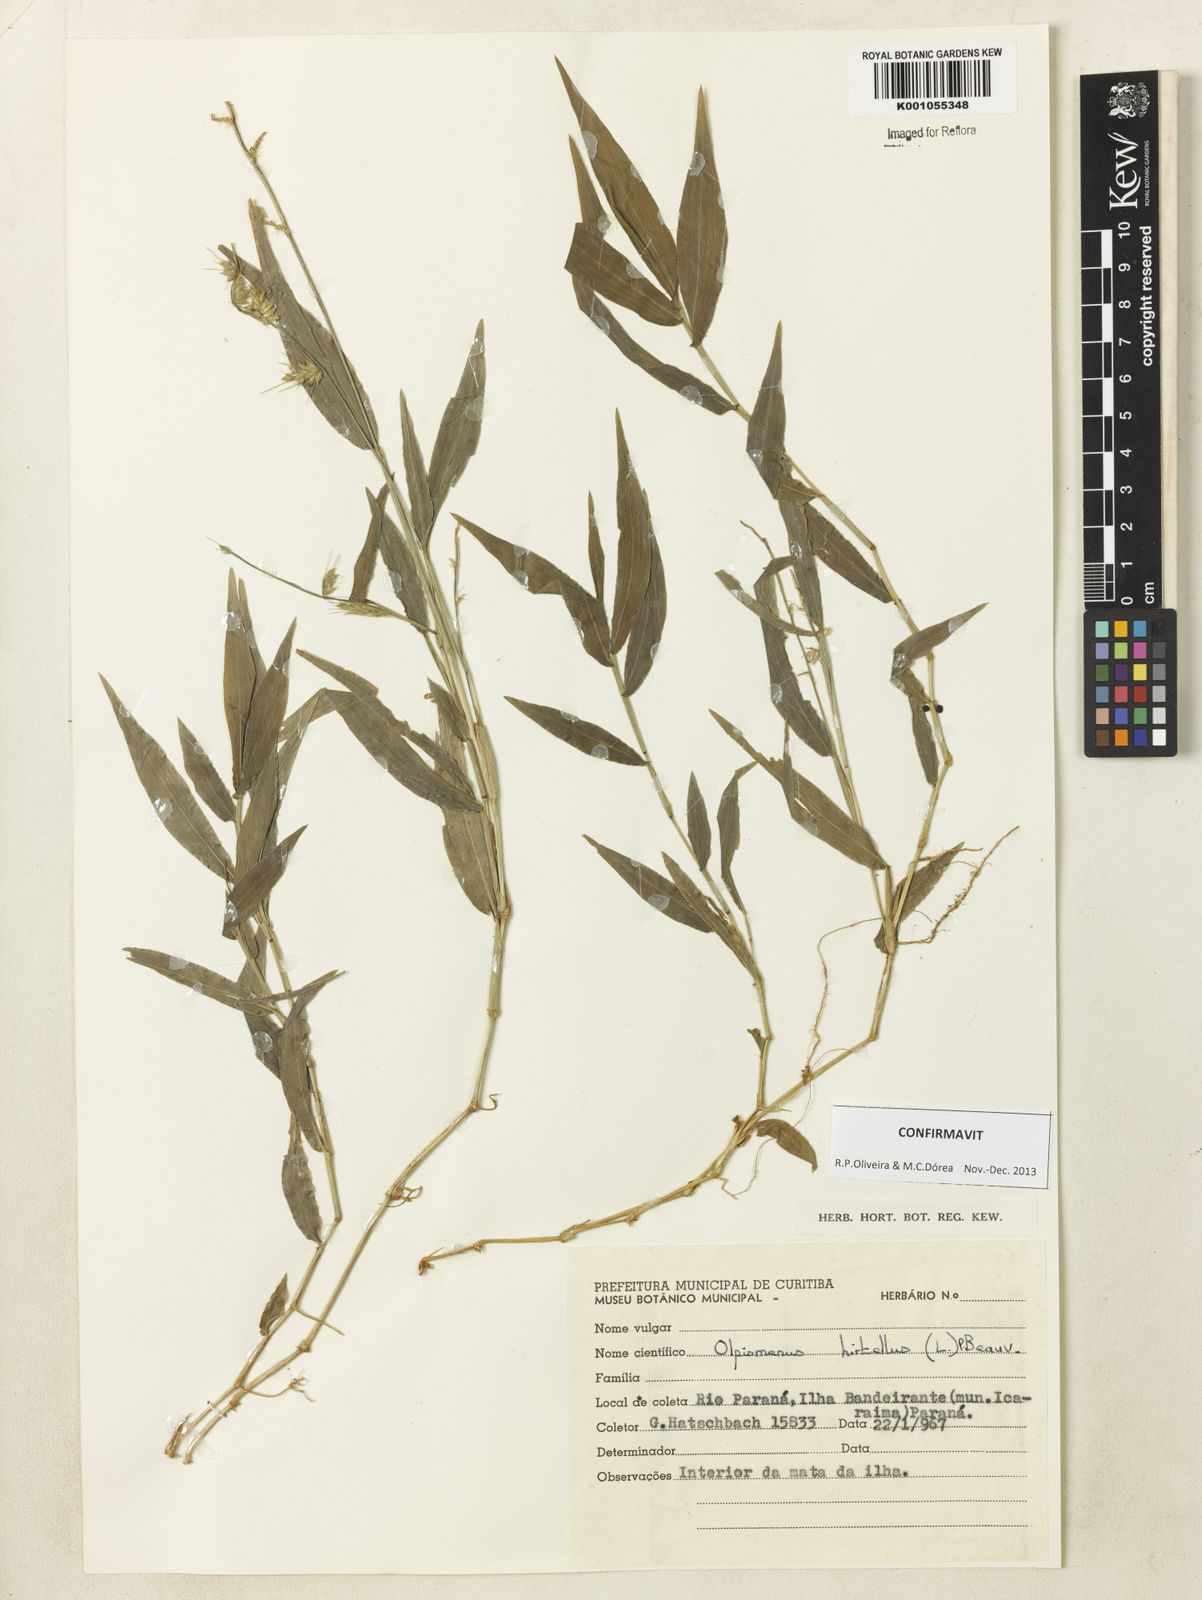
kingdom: Plantae
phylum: Tracheophyta
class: Liliopsida
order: Poales
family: Poaceae
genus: Oplismenus
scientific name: Oplismenus hirtellus
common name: Basketgrass
